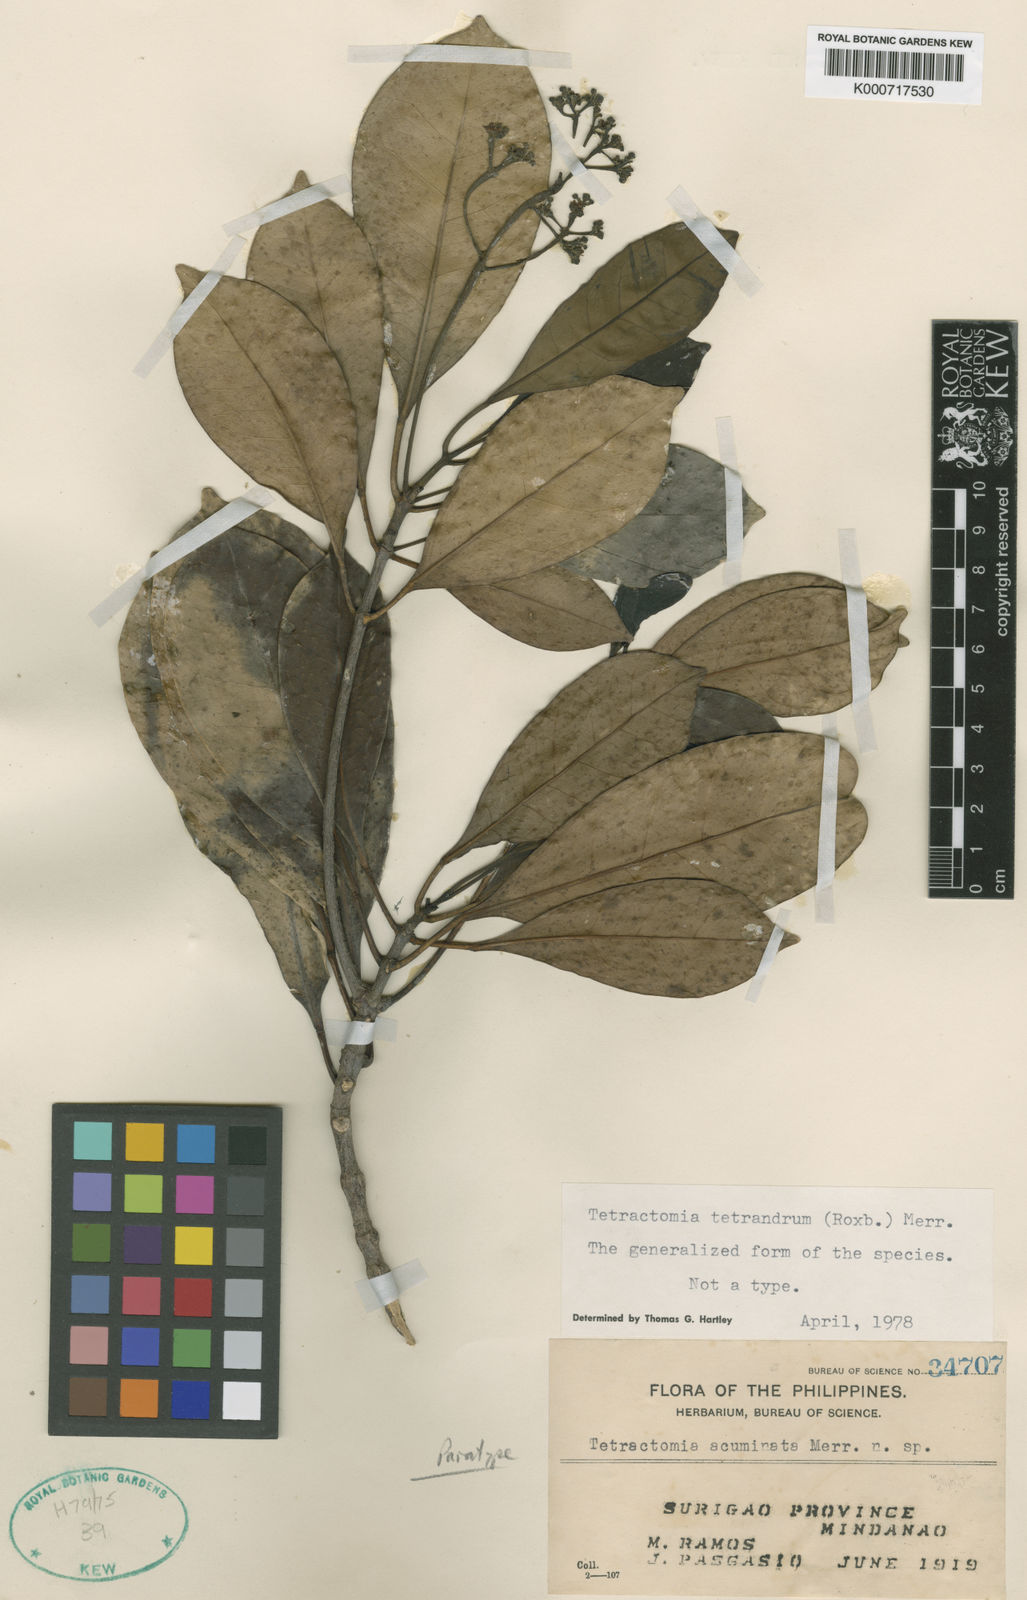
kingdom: Plantae
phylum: Tracheophyta
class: Magnoliopsida
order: Sapindales
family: Rutaceae
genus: Tetractomia
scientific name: Tetractomia tetrandra
